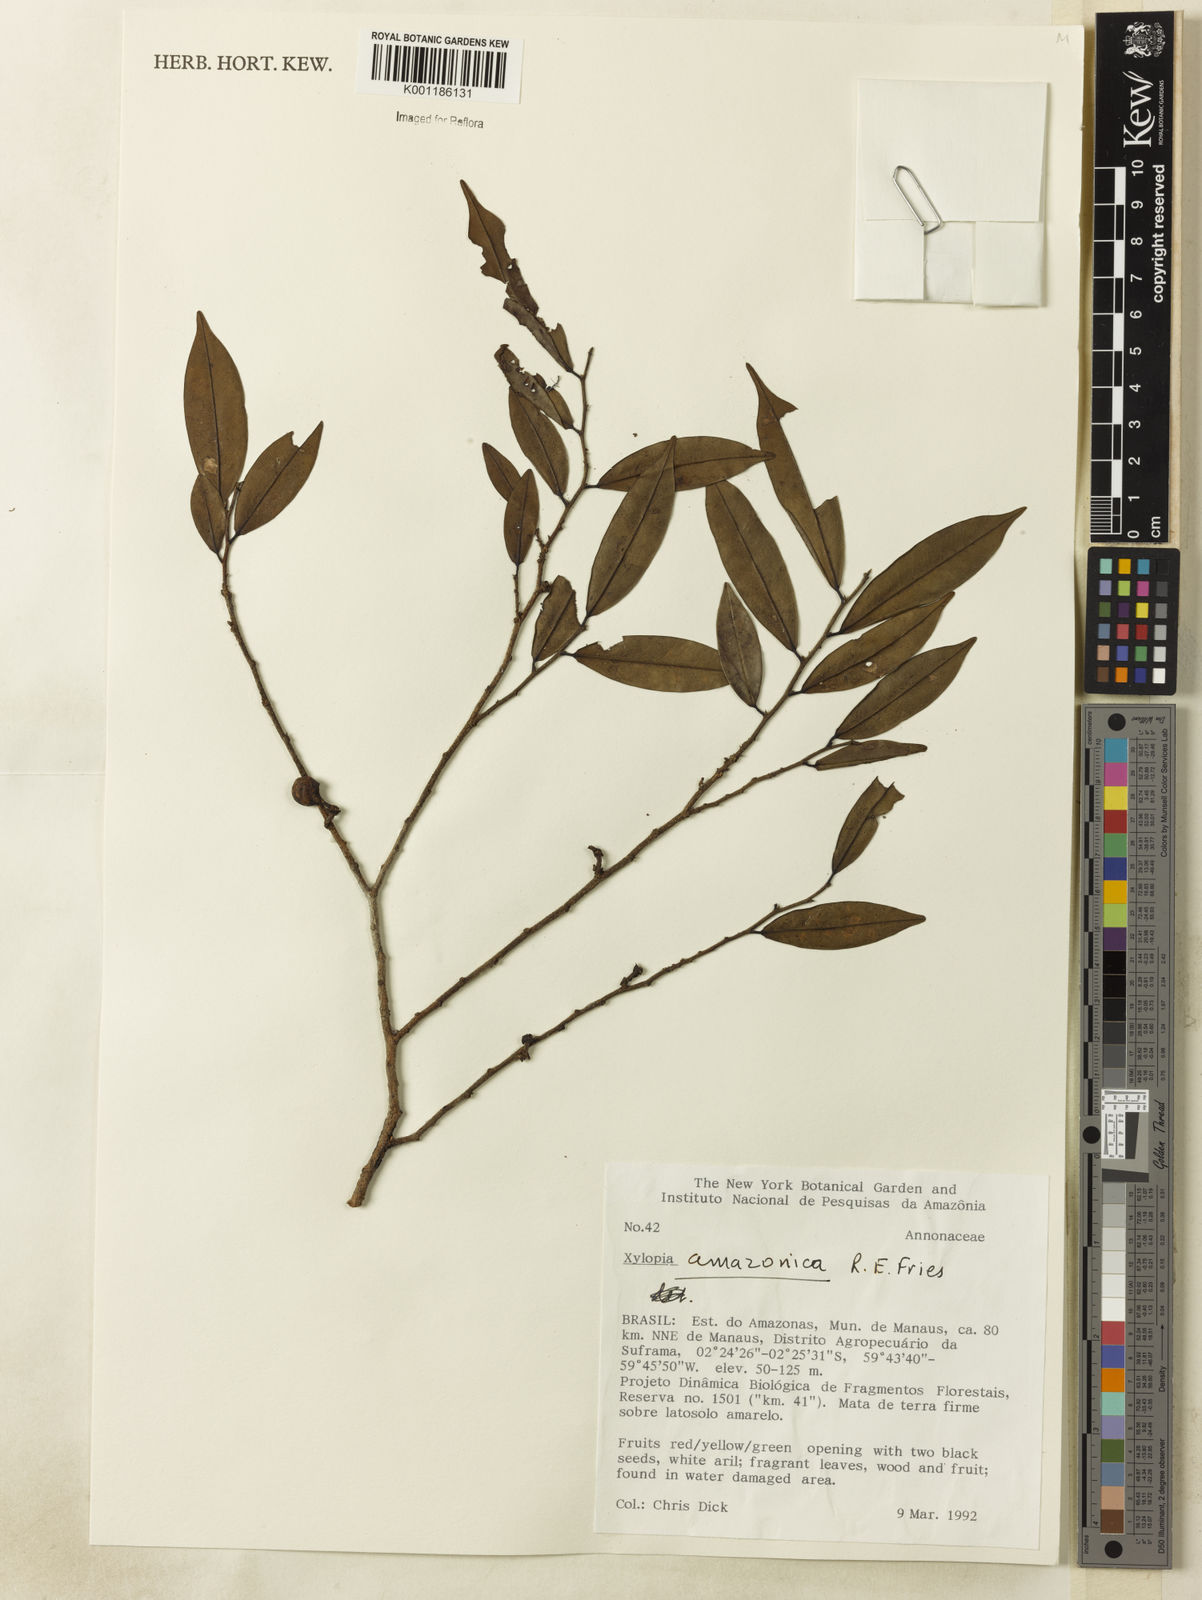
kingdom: Plantae
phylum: Tracheophyta
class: Magnoliopsida
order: Magnoliales
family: Annonaceae
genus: Xylopia
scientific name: Xylopia amazonica
